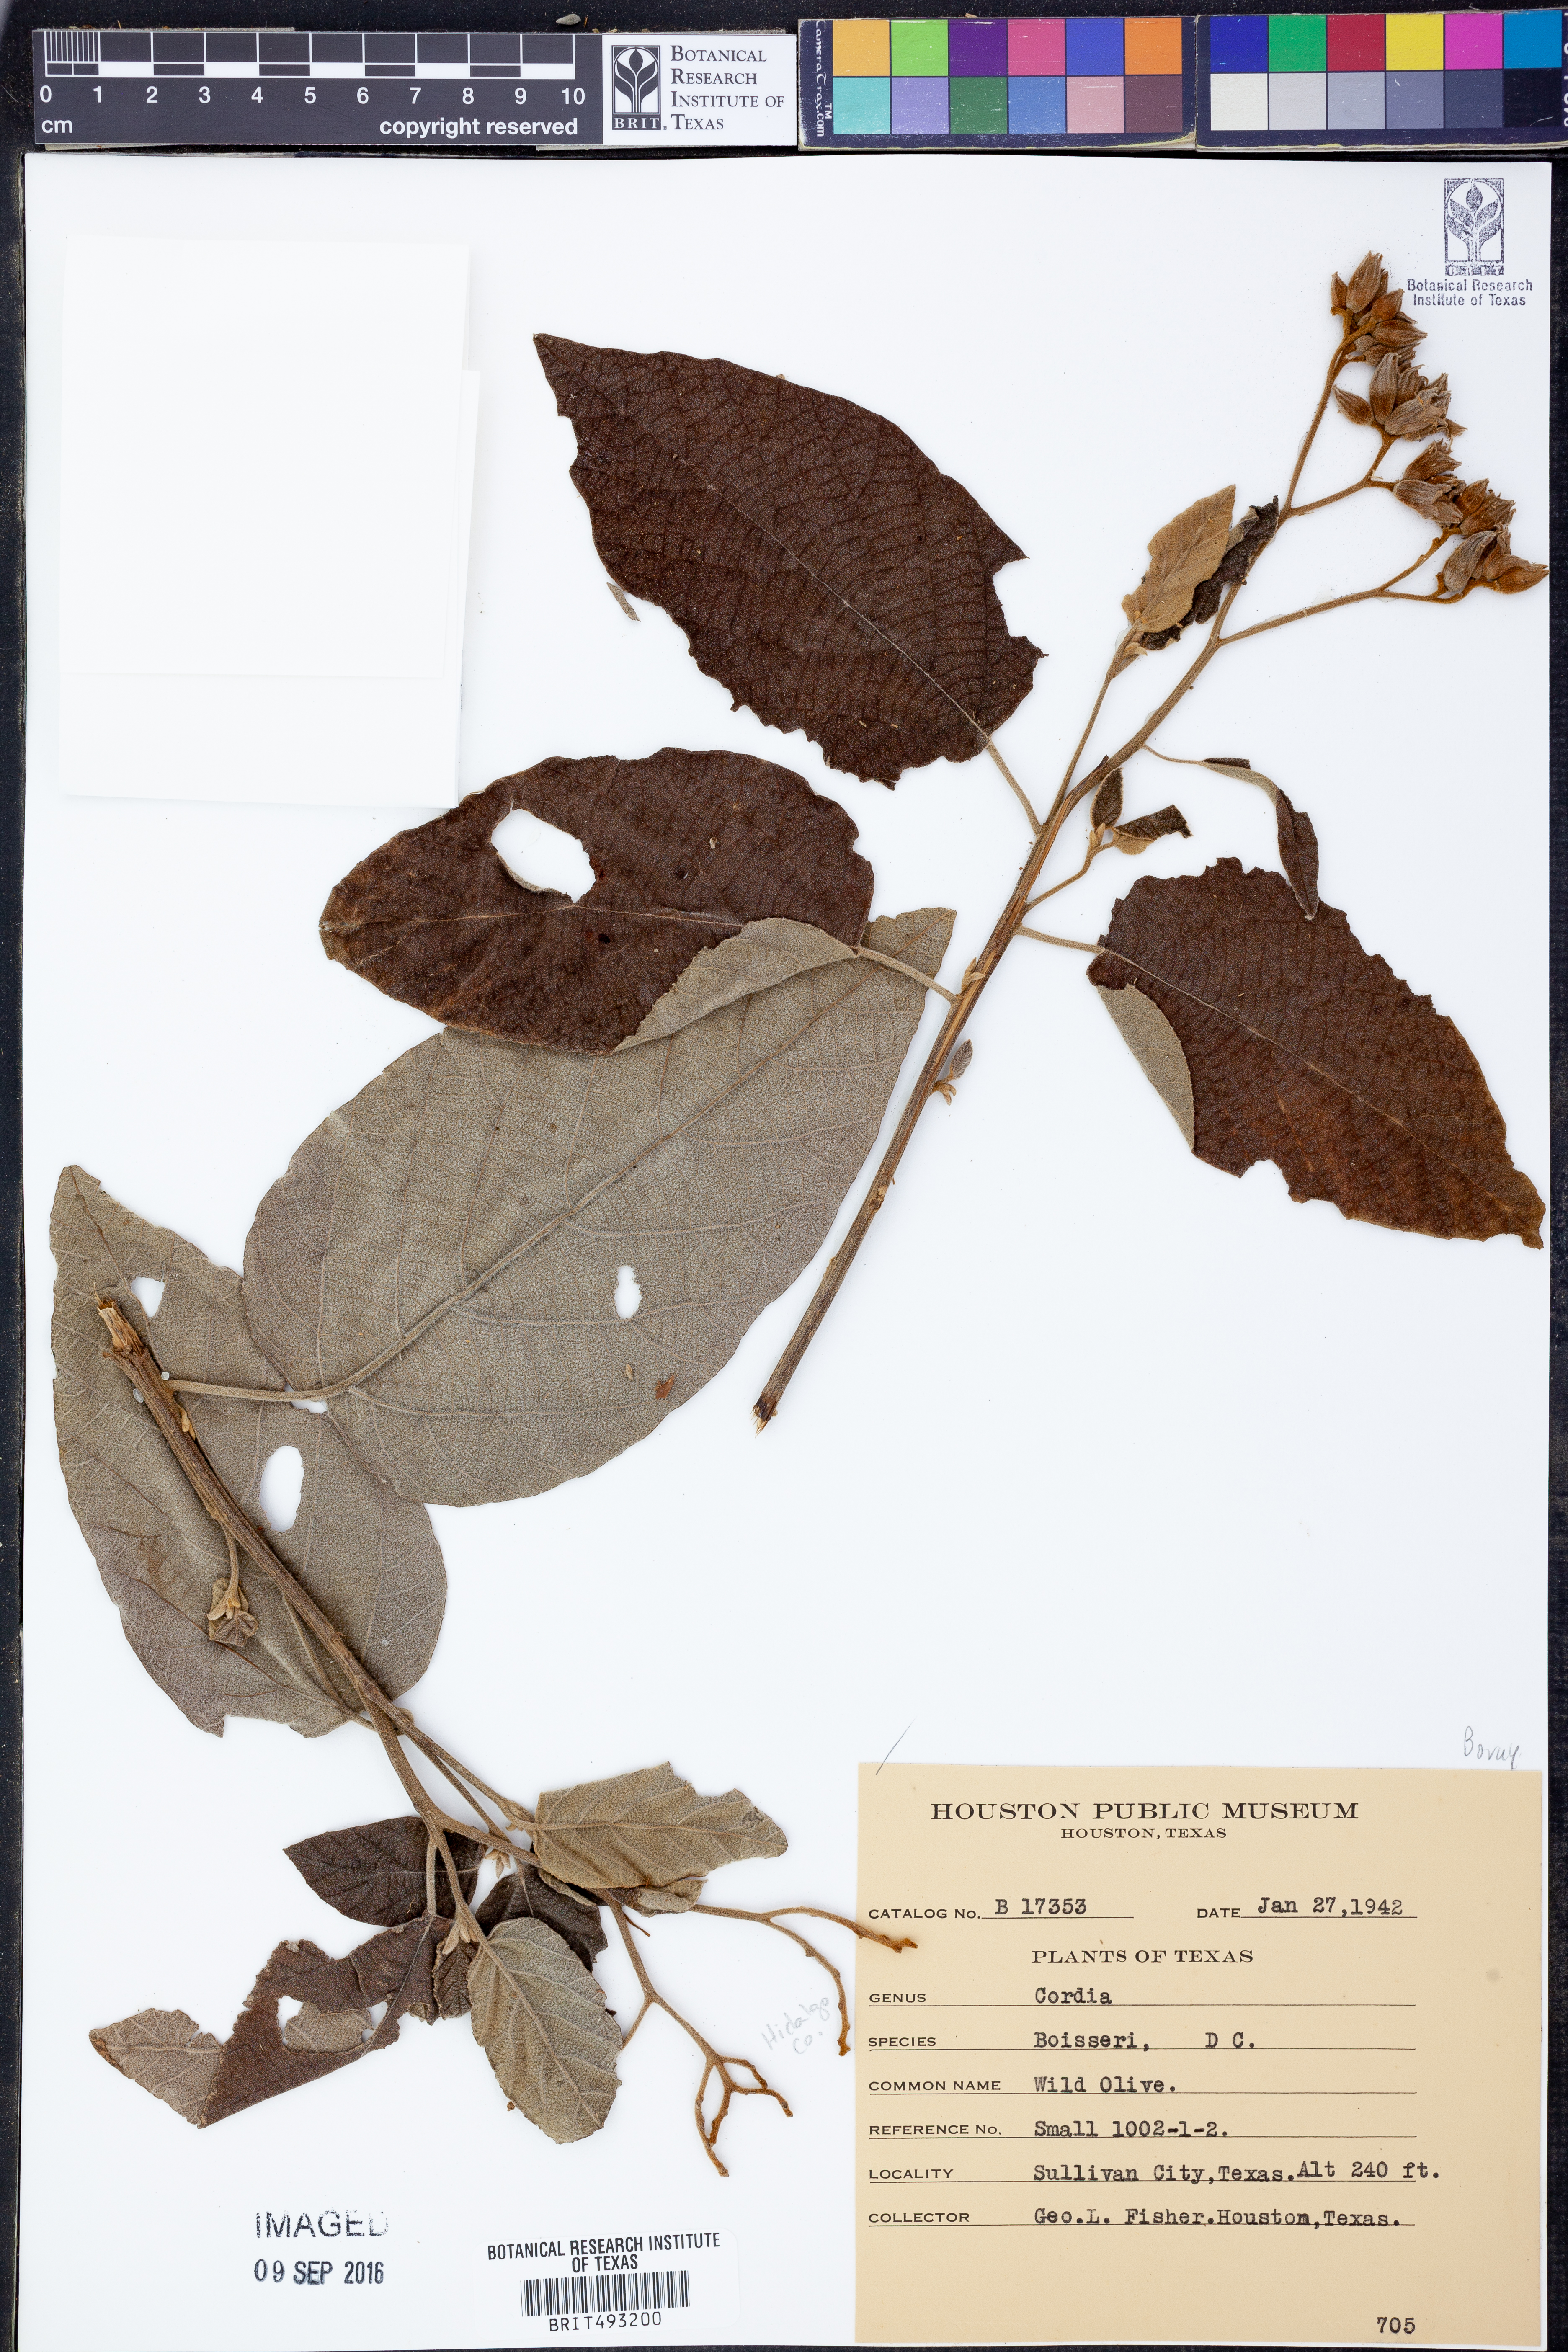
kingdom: Plantae
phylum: Tracheophyta
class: Magnoliopsida
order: Boraginales
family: Cordiaceae
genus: Cordia
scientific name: Cordia boissieri
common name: Mexican-olive
